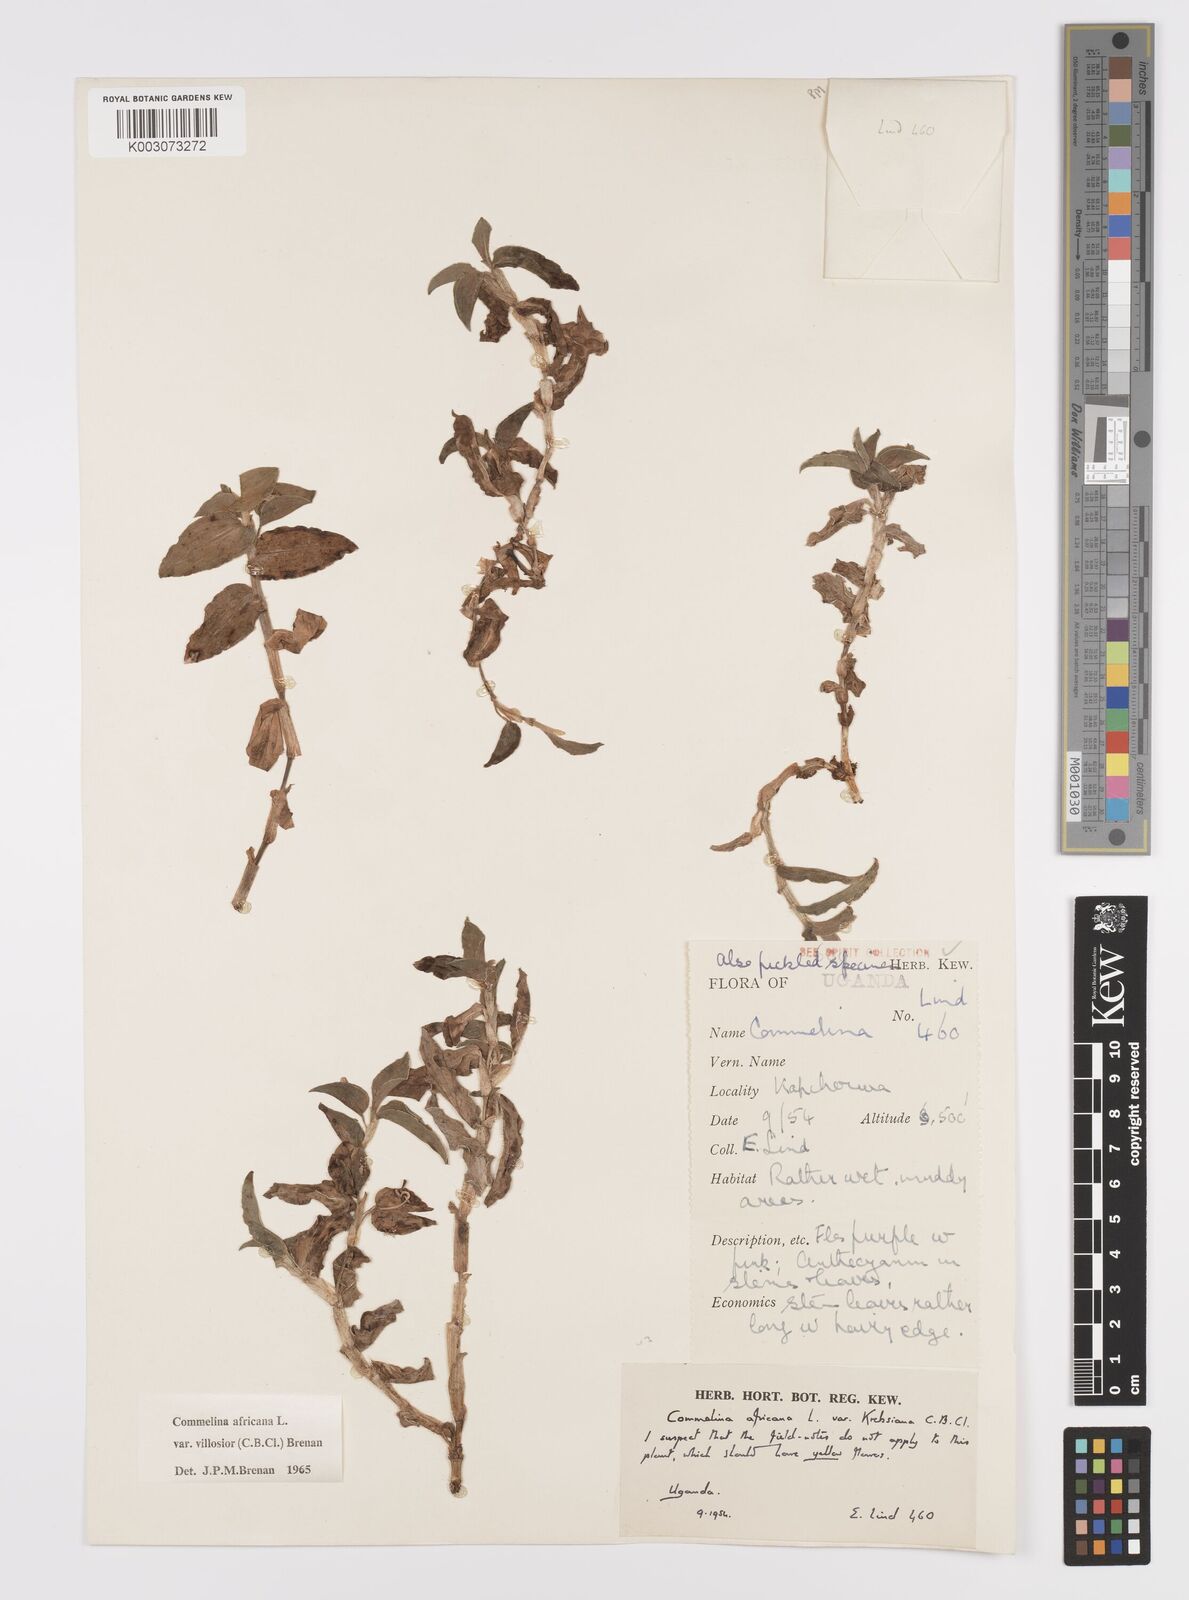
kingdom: Plantae
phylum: Tracheophyta
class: Liliopsida
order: Commelinales
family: Commelinaceae
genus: Commelina
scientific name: Commelina africana
